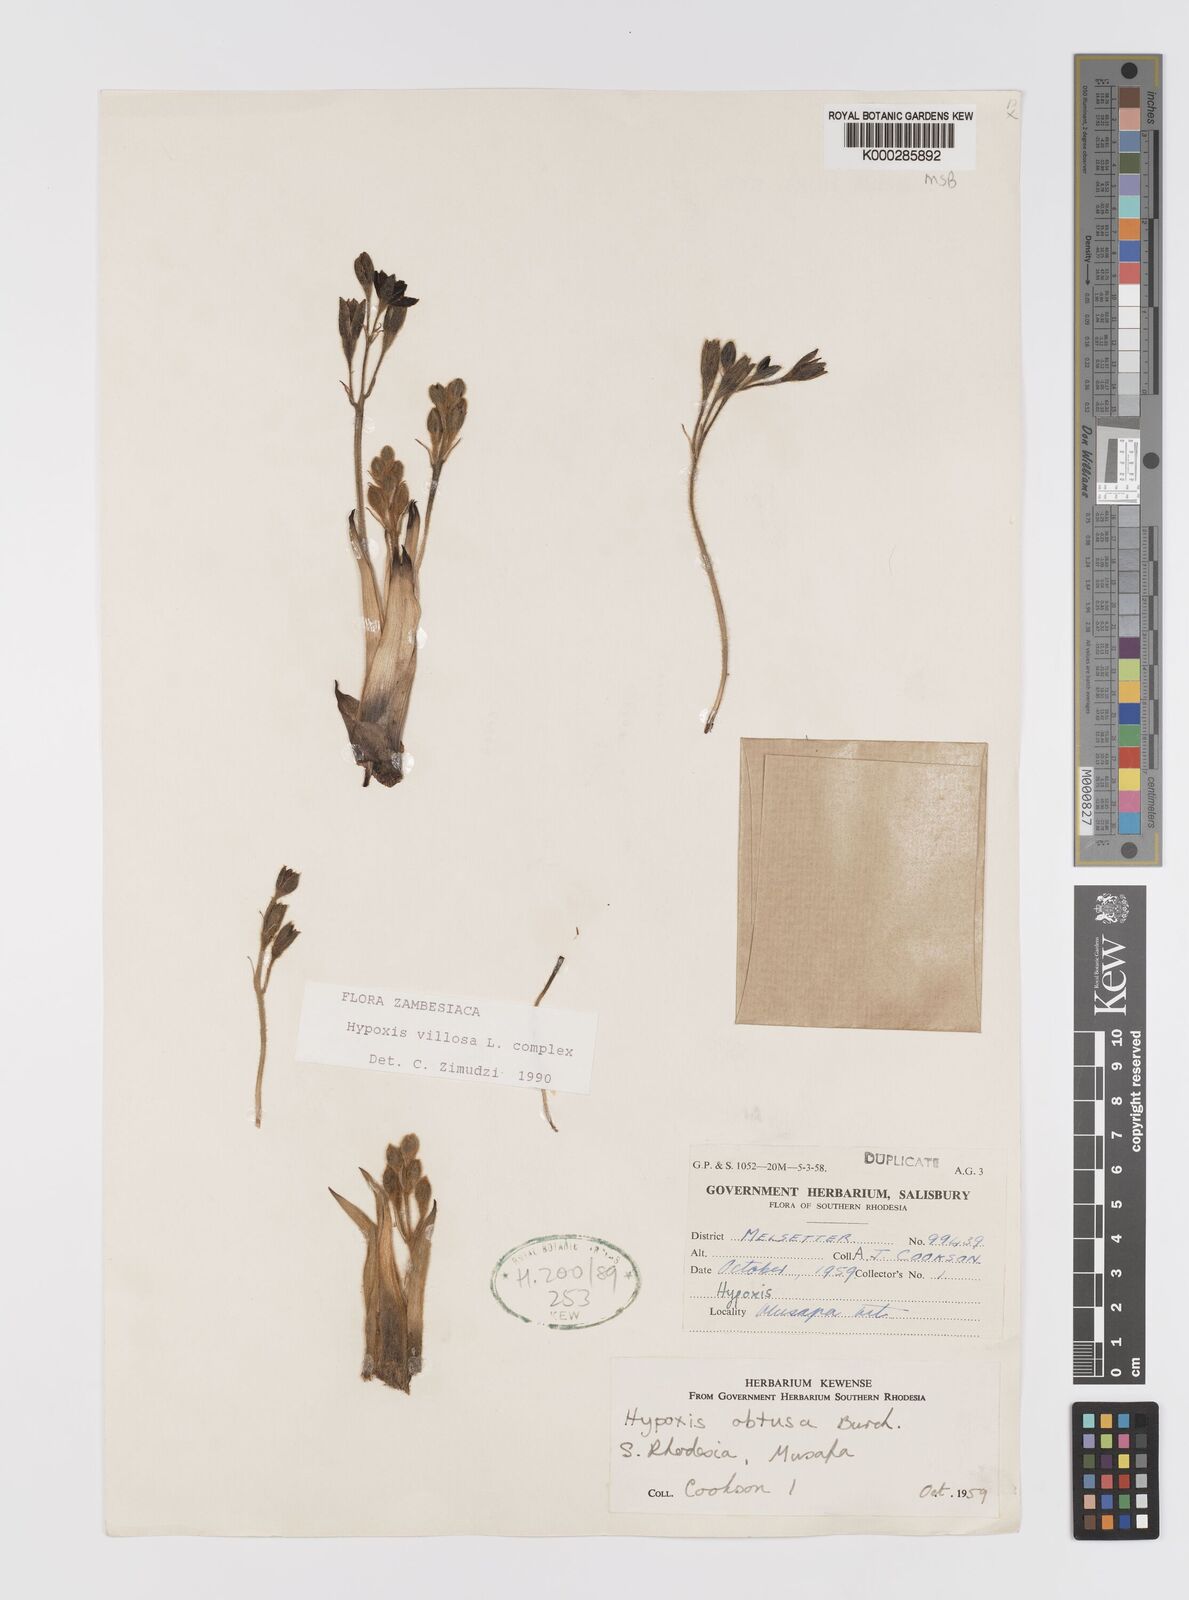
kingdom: Plantae
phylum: Tracheophyta
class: Liliopsida
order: Asparagales
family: Hypoxidaceae
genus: Hypoxis
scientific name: Hypoxis
